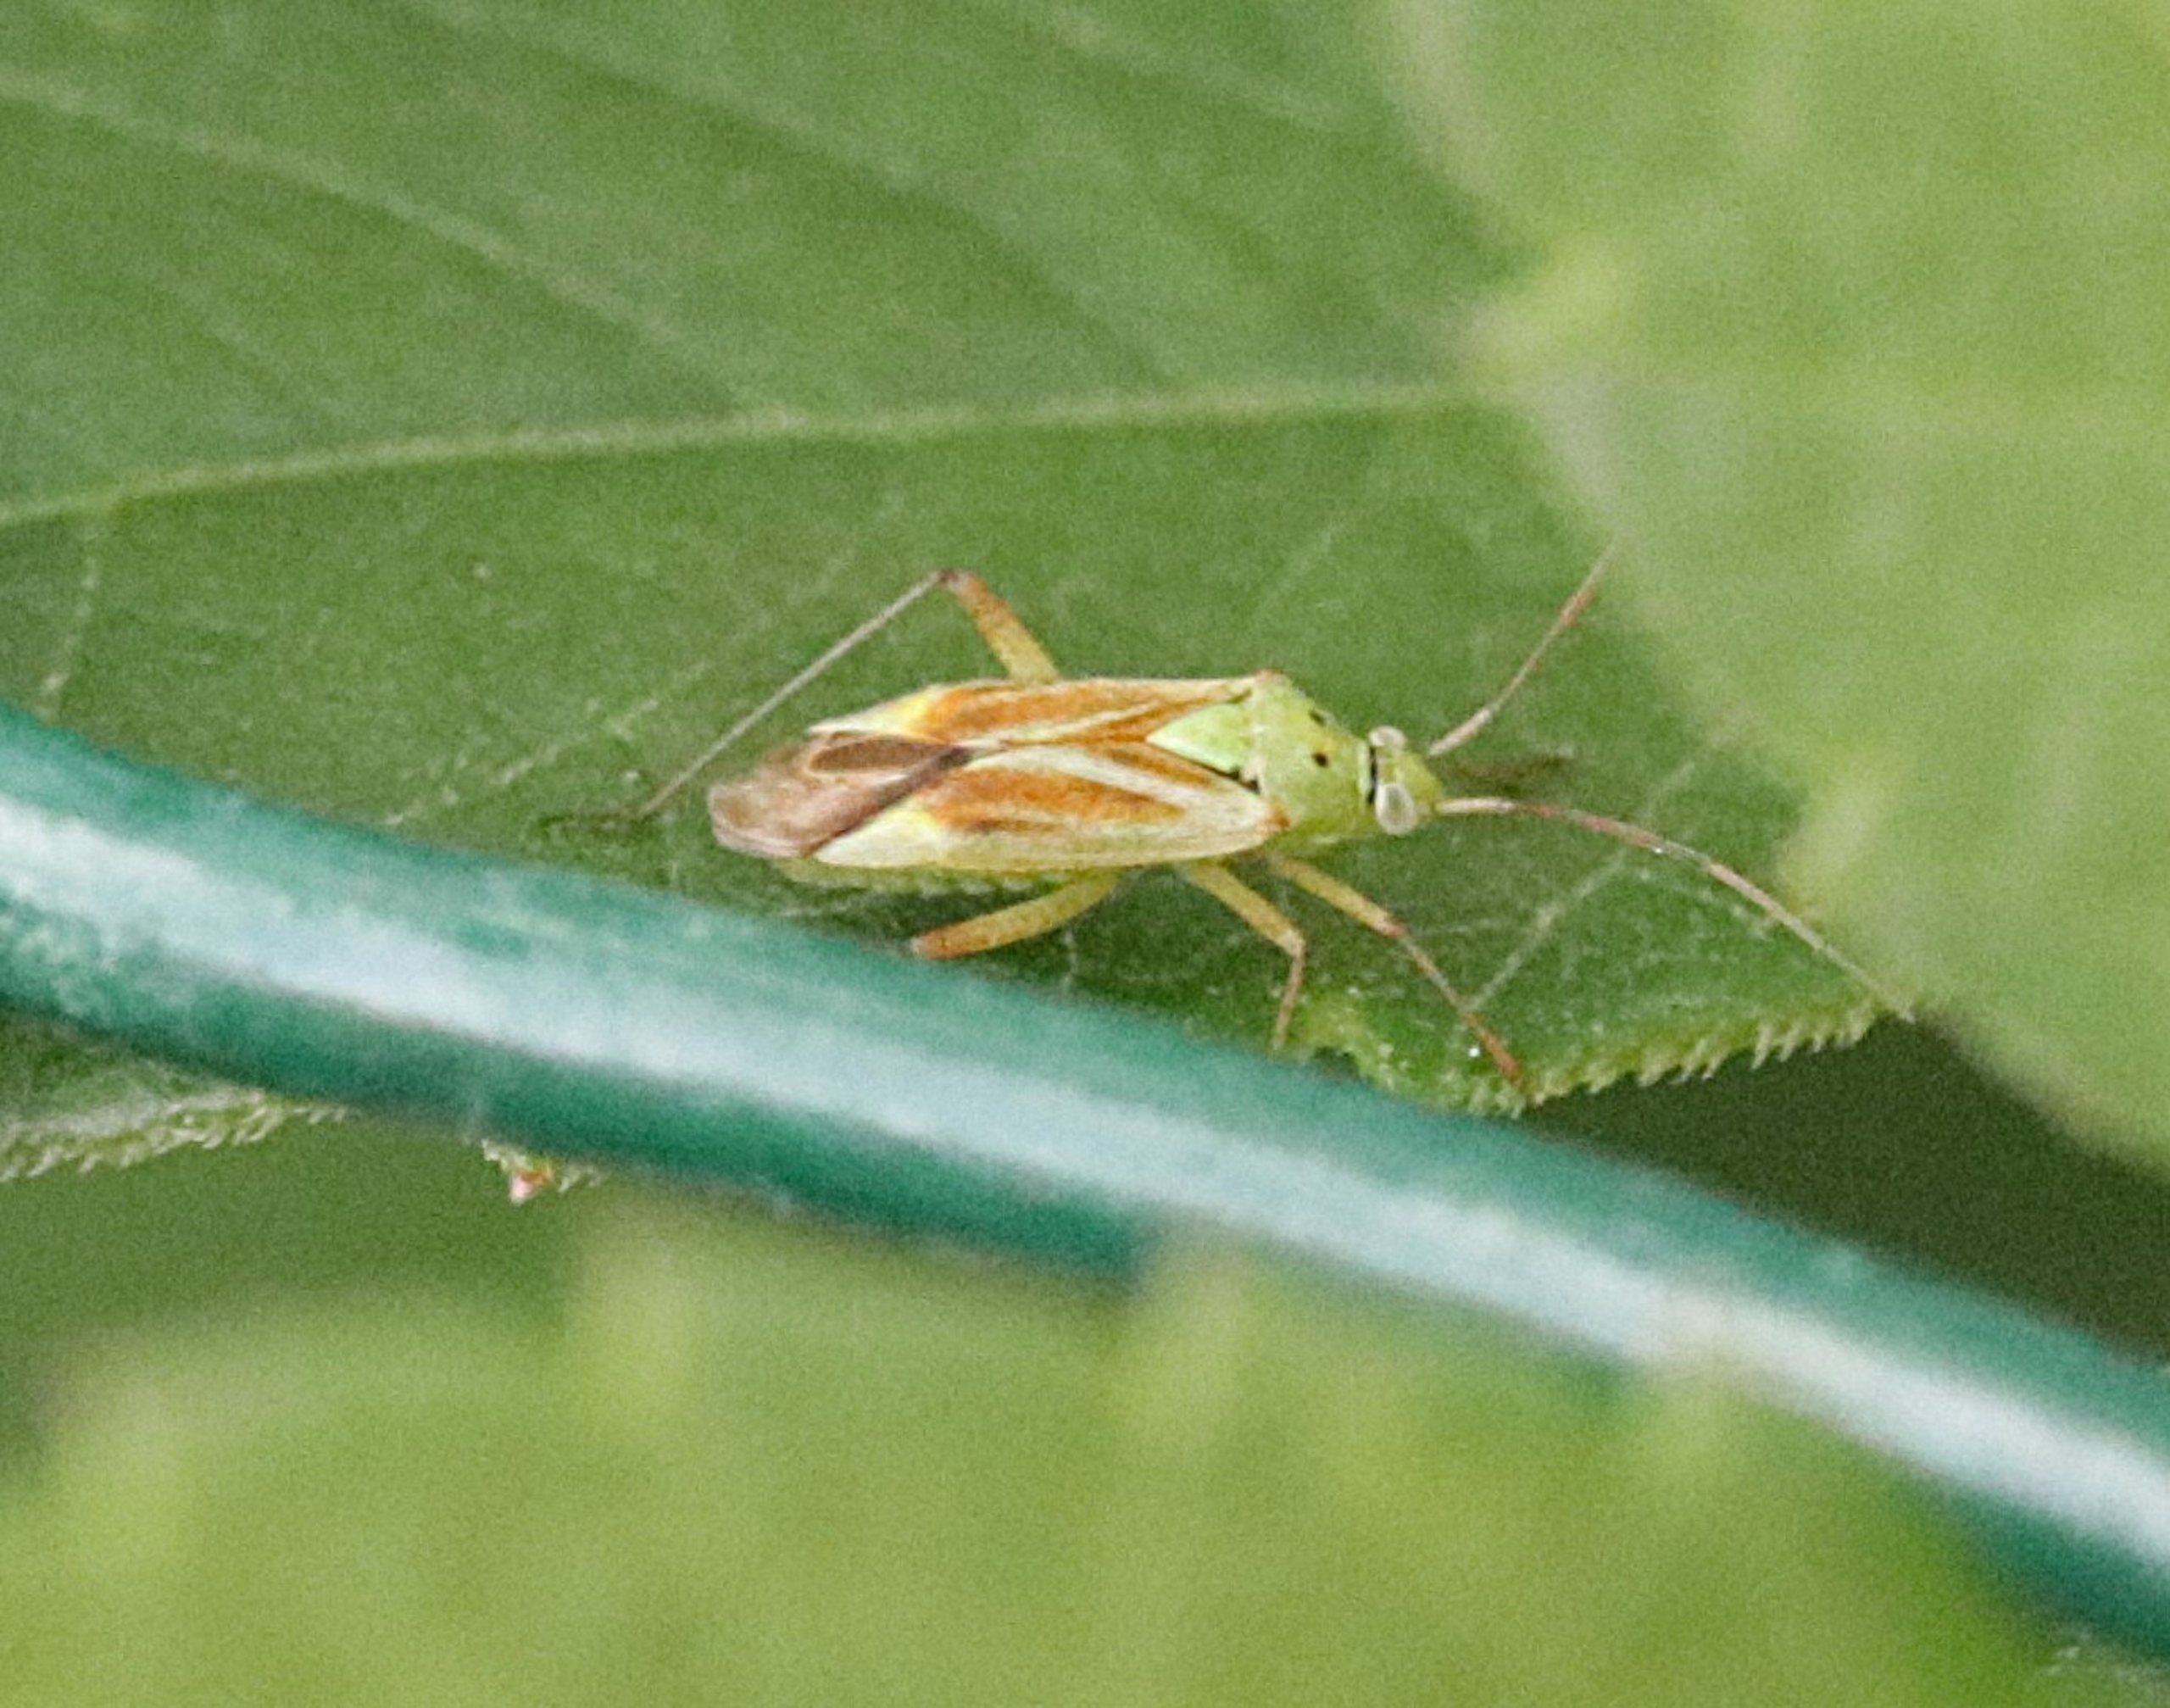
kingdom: Animalia
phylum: Arthropoda
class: Insecta
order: Hemiptera
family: Miridae
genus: Closterotomus
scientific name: Closterotomus norvegicus
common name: Toplettet bederoetæge
